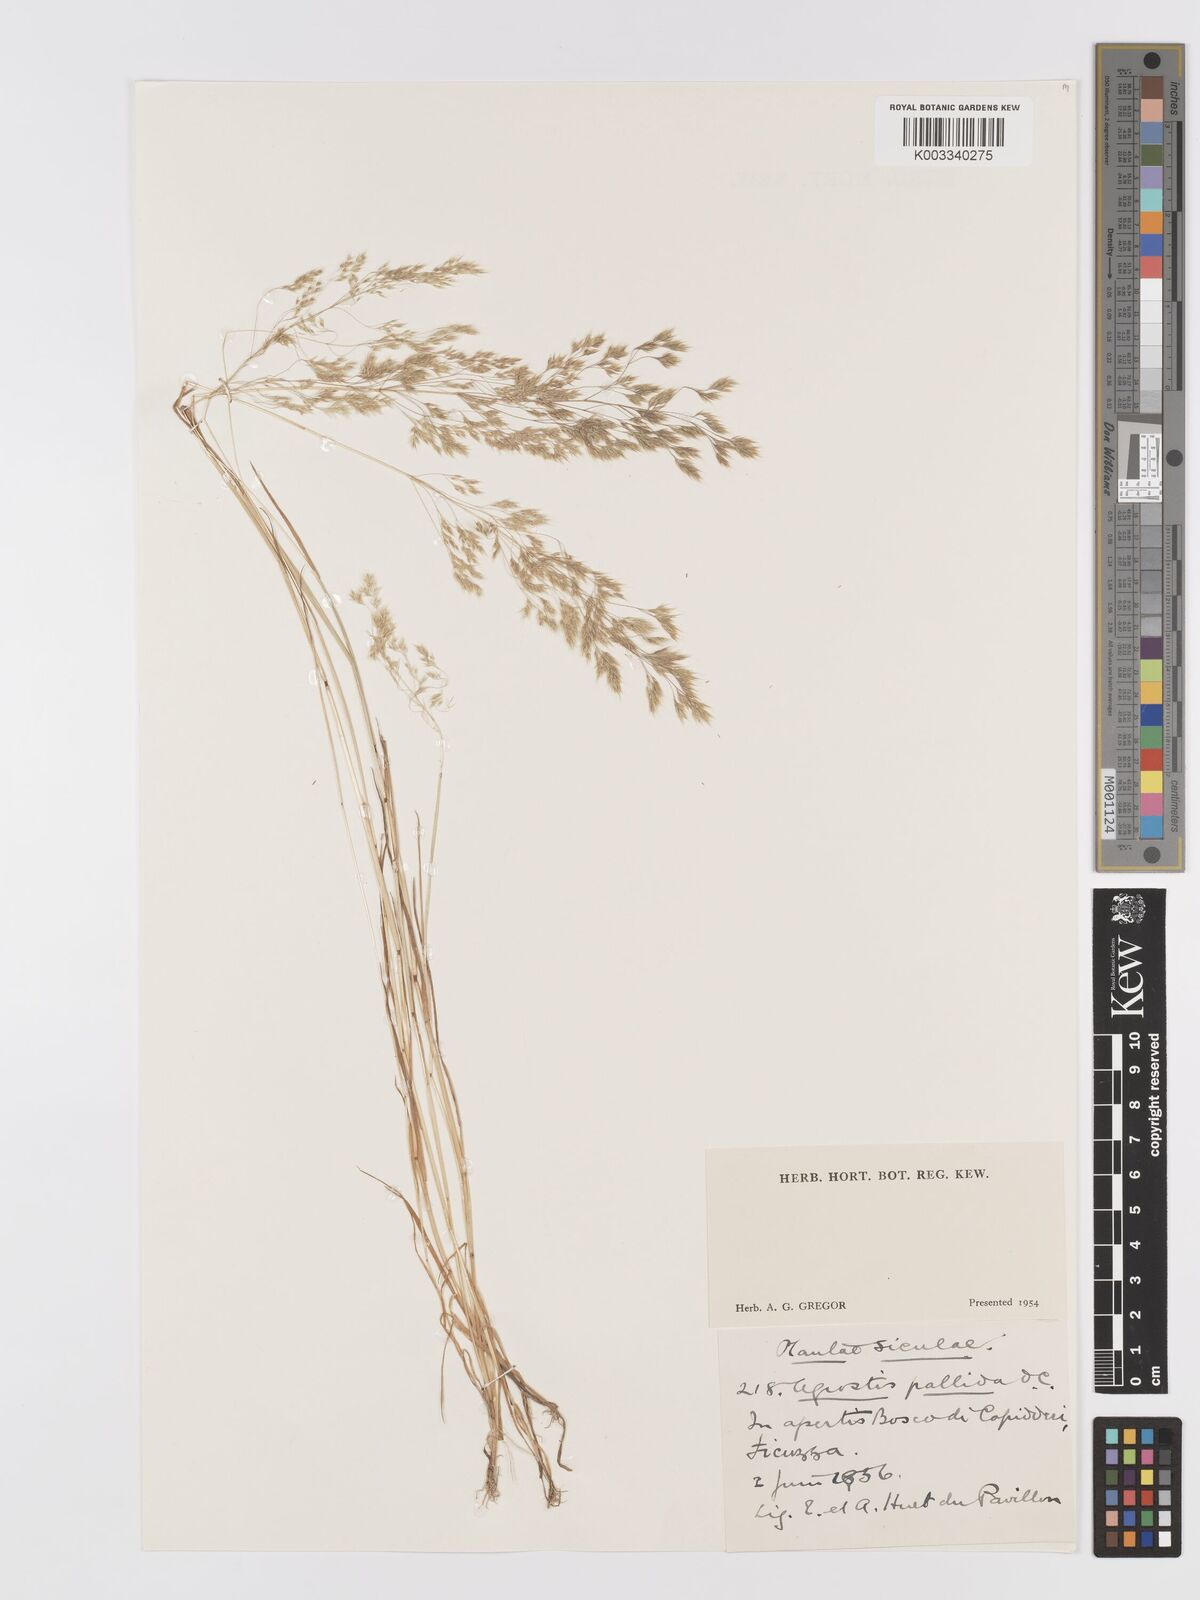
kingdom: Plantae
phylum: Tracheophyta
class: Liliopsida
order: Poales
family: Poaceae
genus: Agrostis
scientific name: Agrostis pourretii
